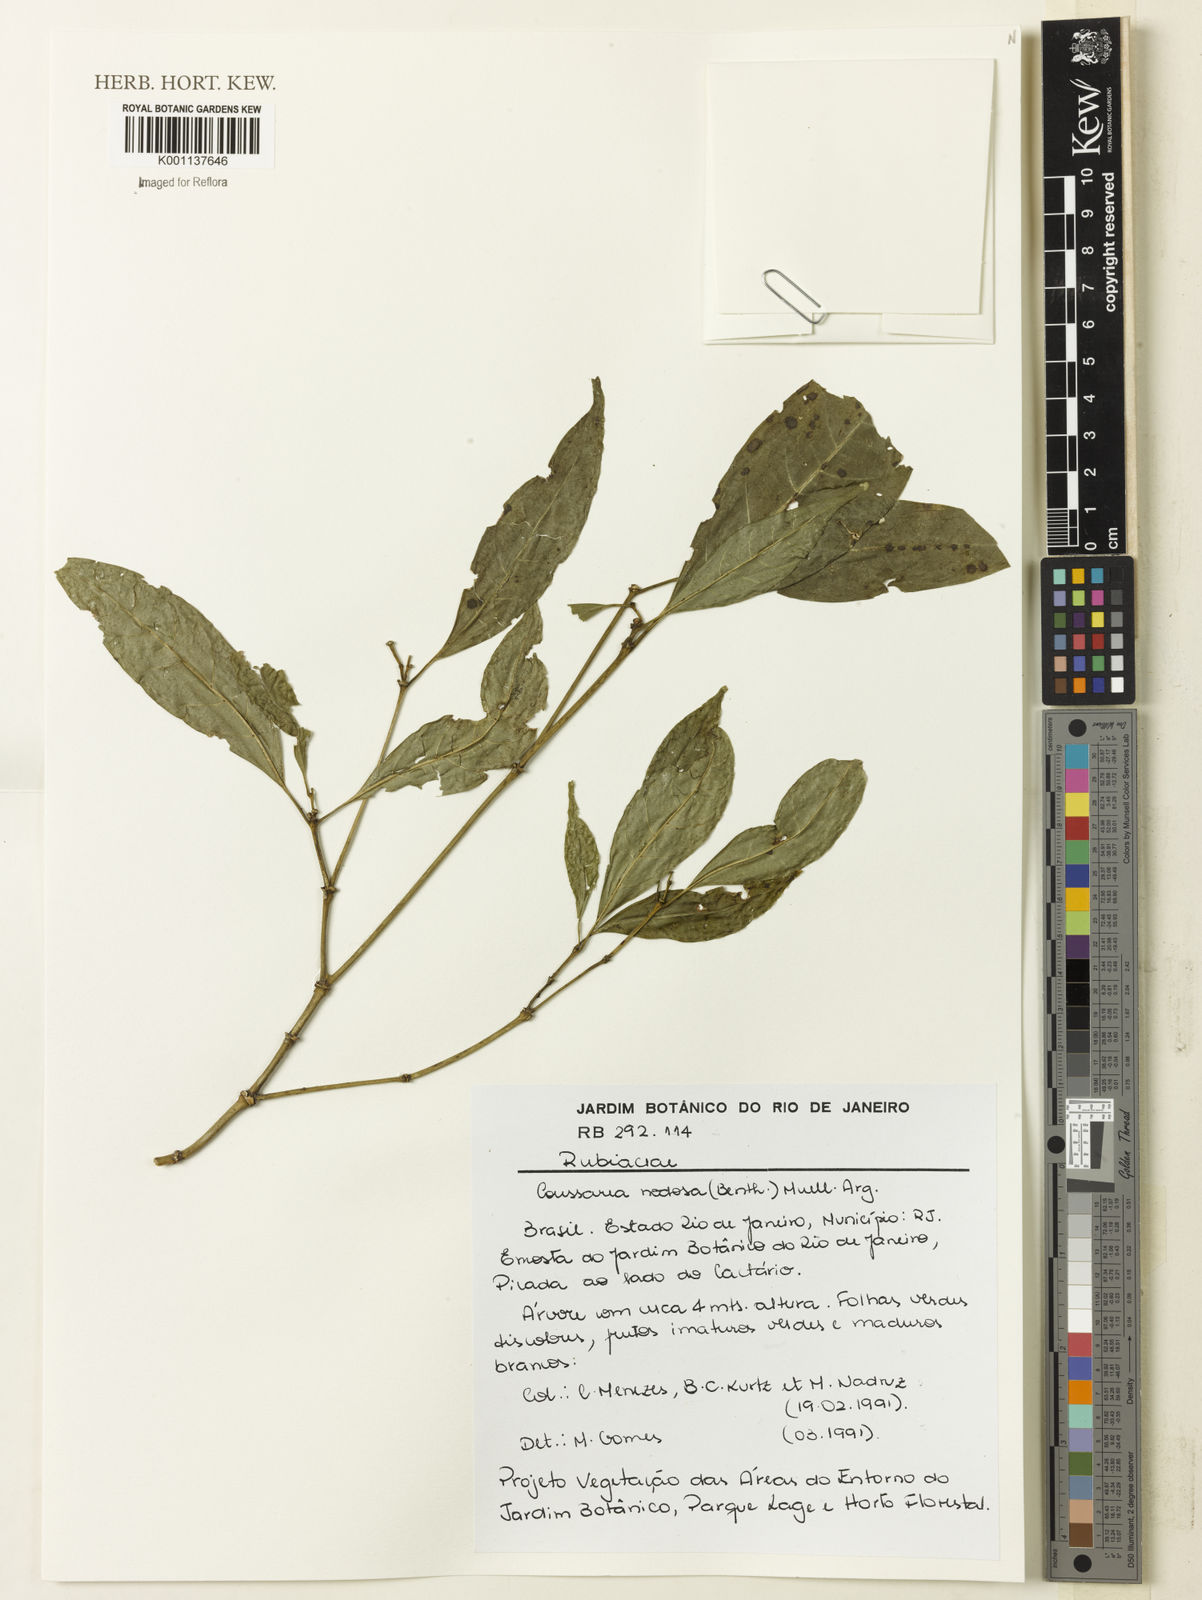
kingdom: Plantae
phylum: Tracheophyta
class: Magnoliopsida
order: Gentianales
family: Rubiaceae
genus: Coussarea
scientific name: Coussarea
